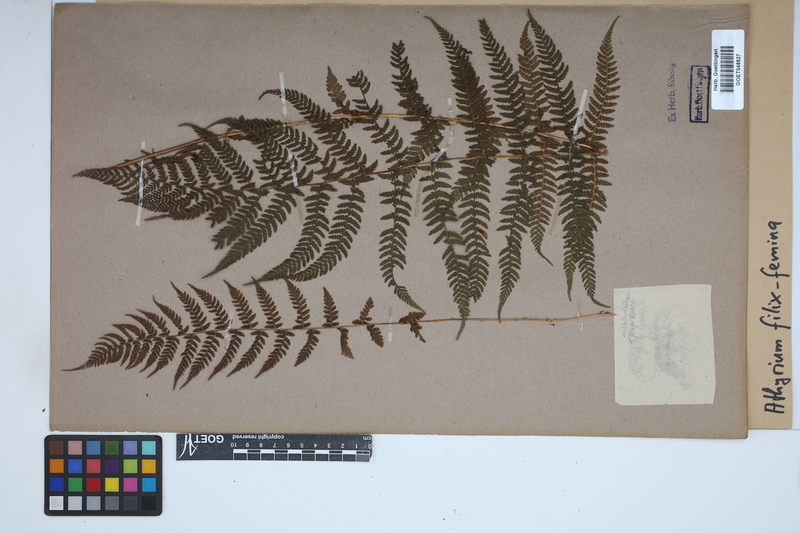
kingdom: Plantae
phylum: Tracheophyta
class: Polypodiopsida
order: Polypodiales
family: Athyriaceae
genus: Athyrium
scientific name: Athyrium filix-femina
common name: Lady fern
